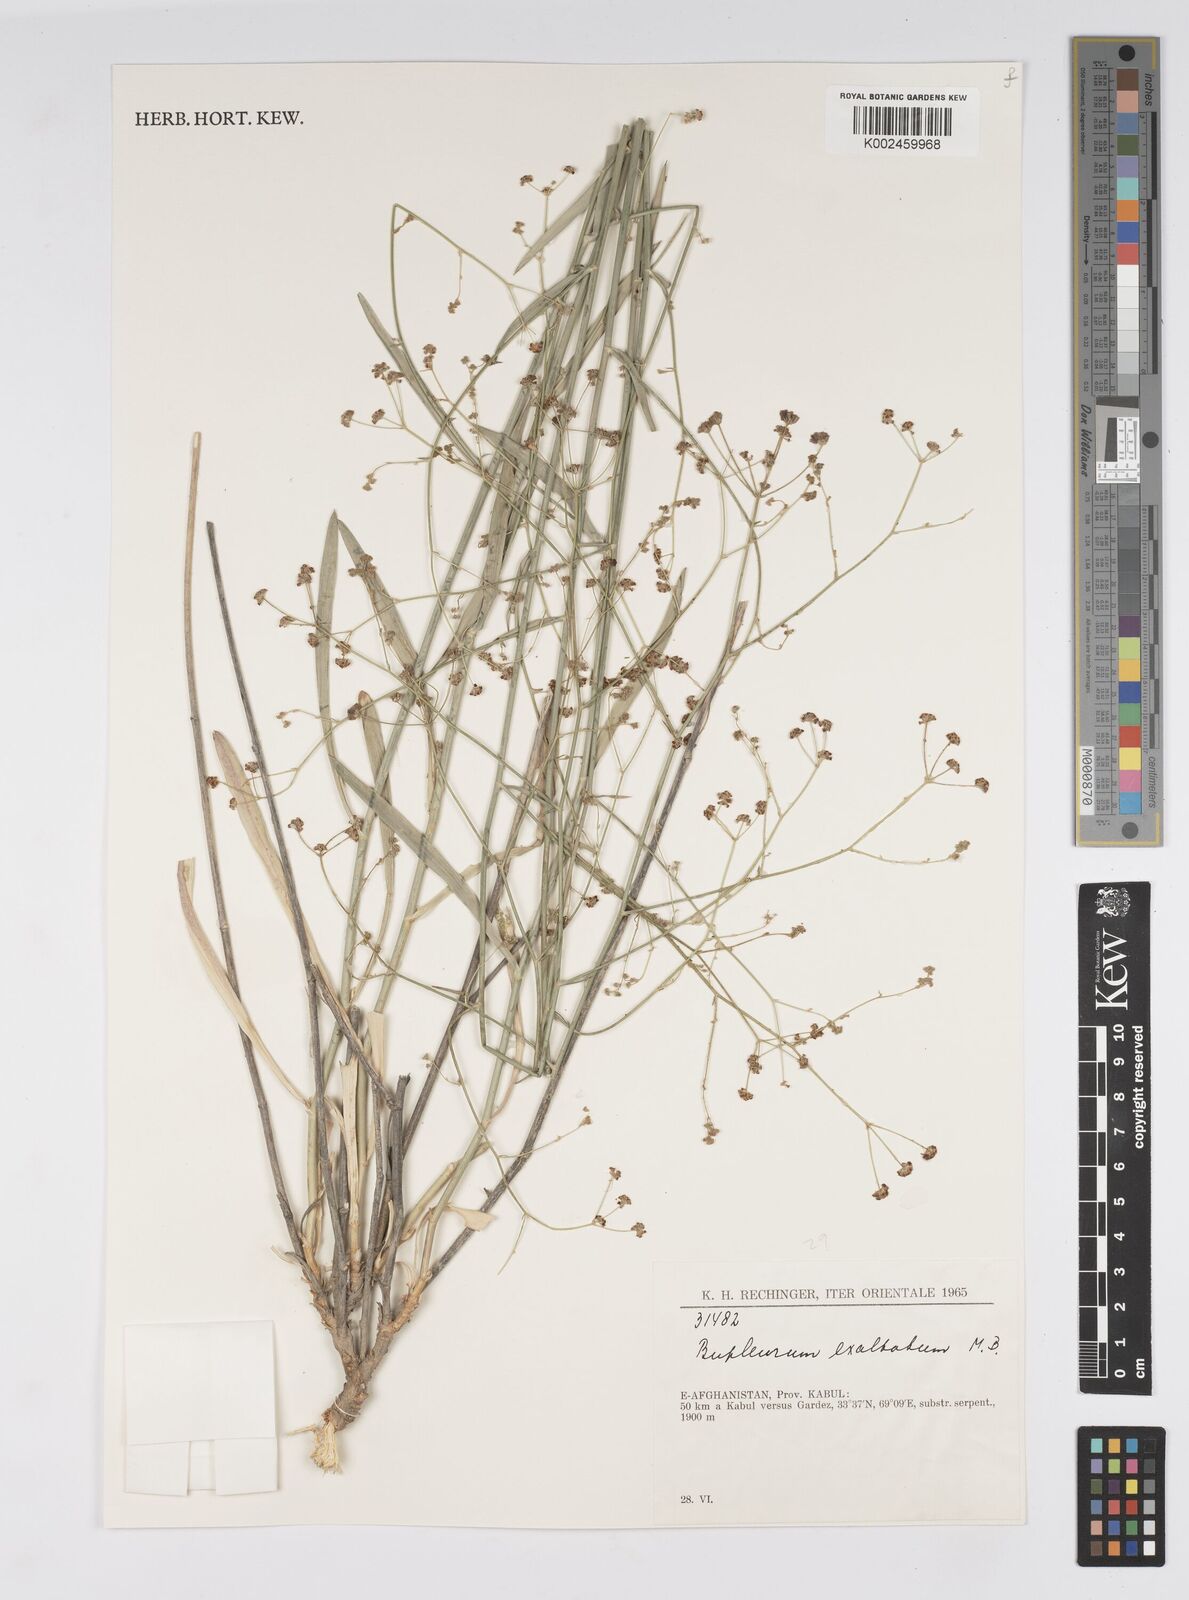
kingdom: Plantae
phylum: Tracheophyta
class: Magnoliopsida
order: Apiales
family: Apiaceae
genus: Bupleurum
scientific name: Bupleurum falcatum
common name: Sickle-leaved hare's-ear
